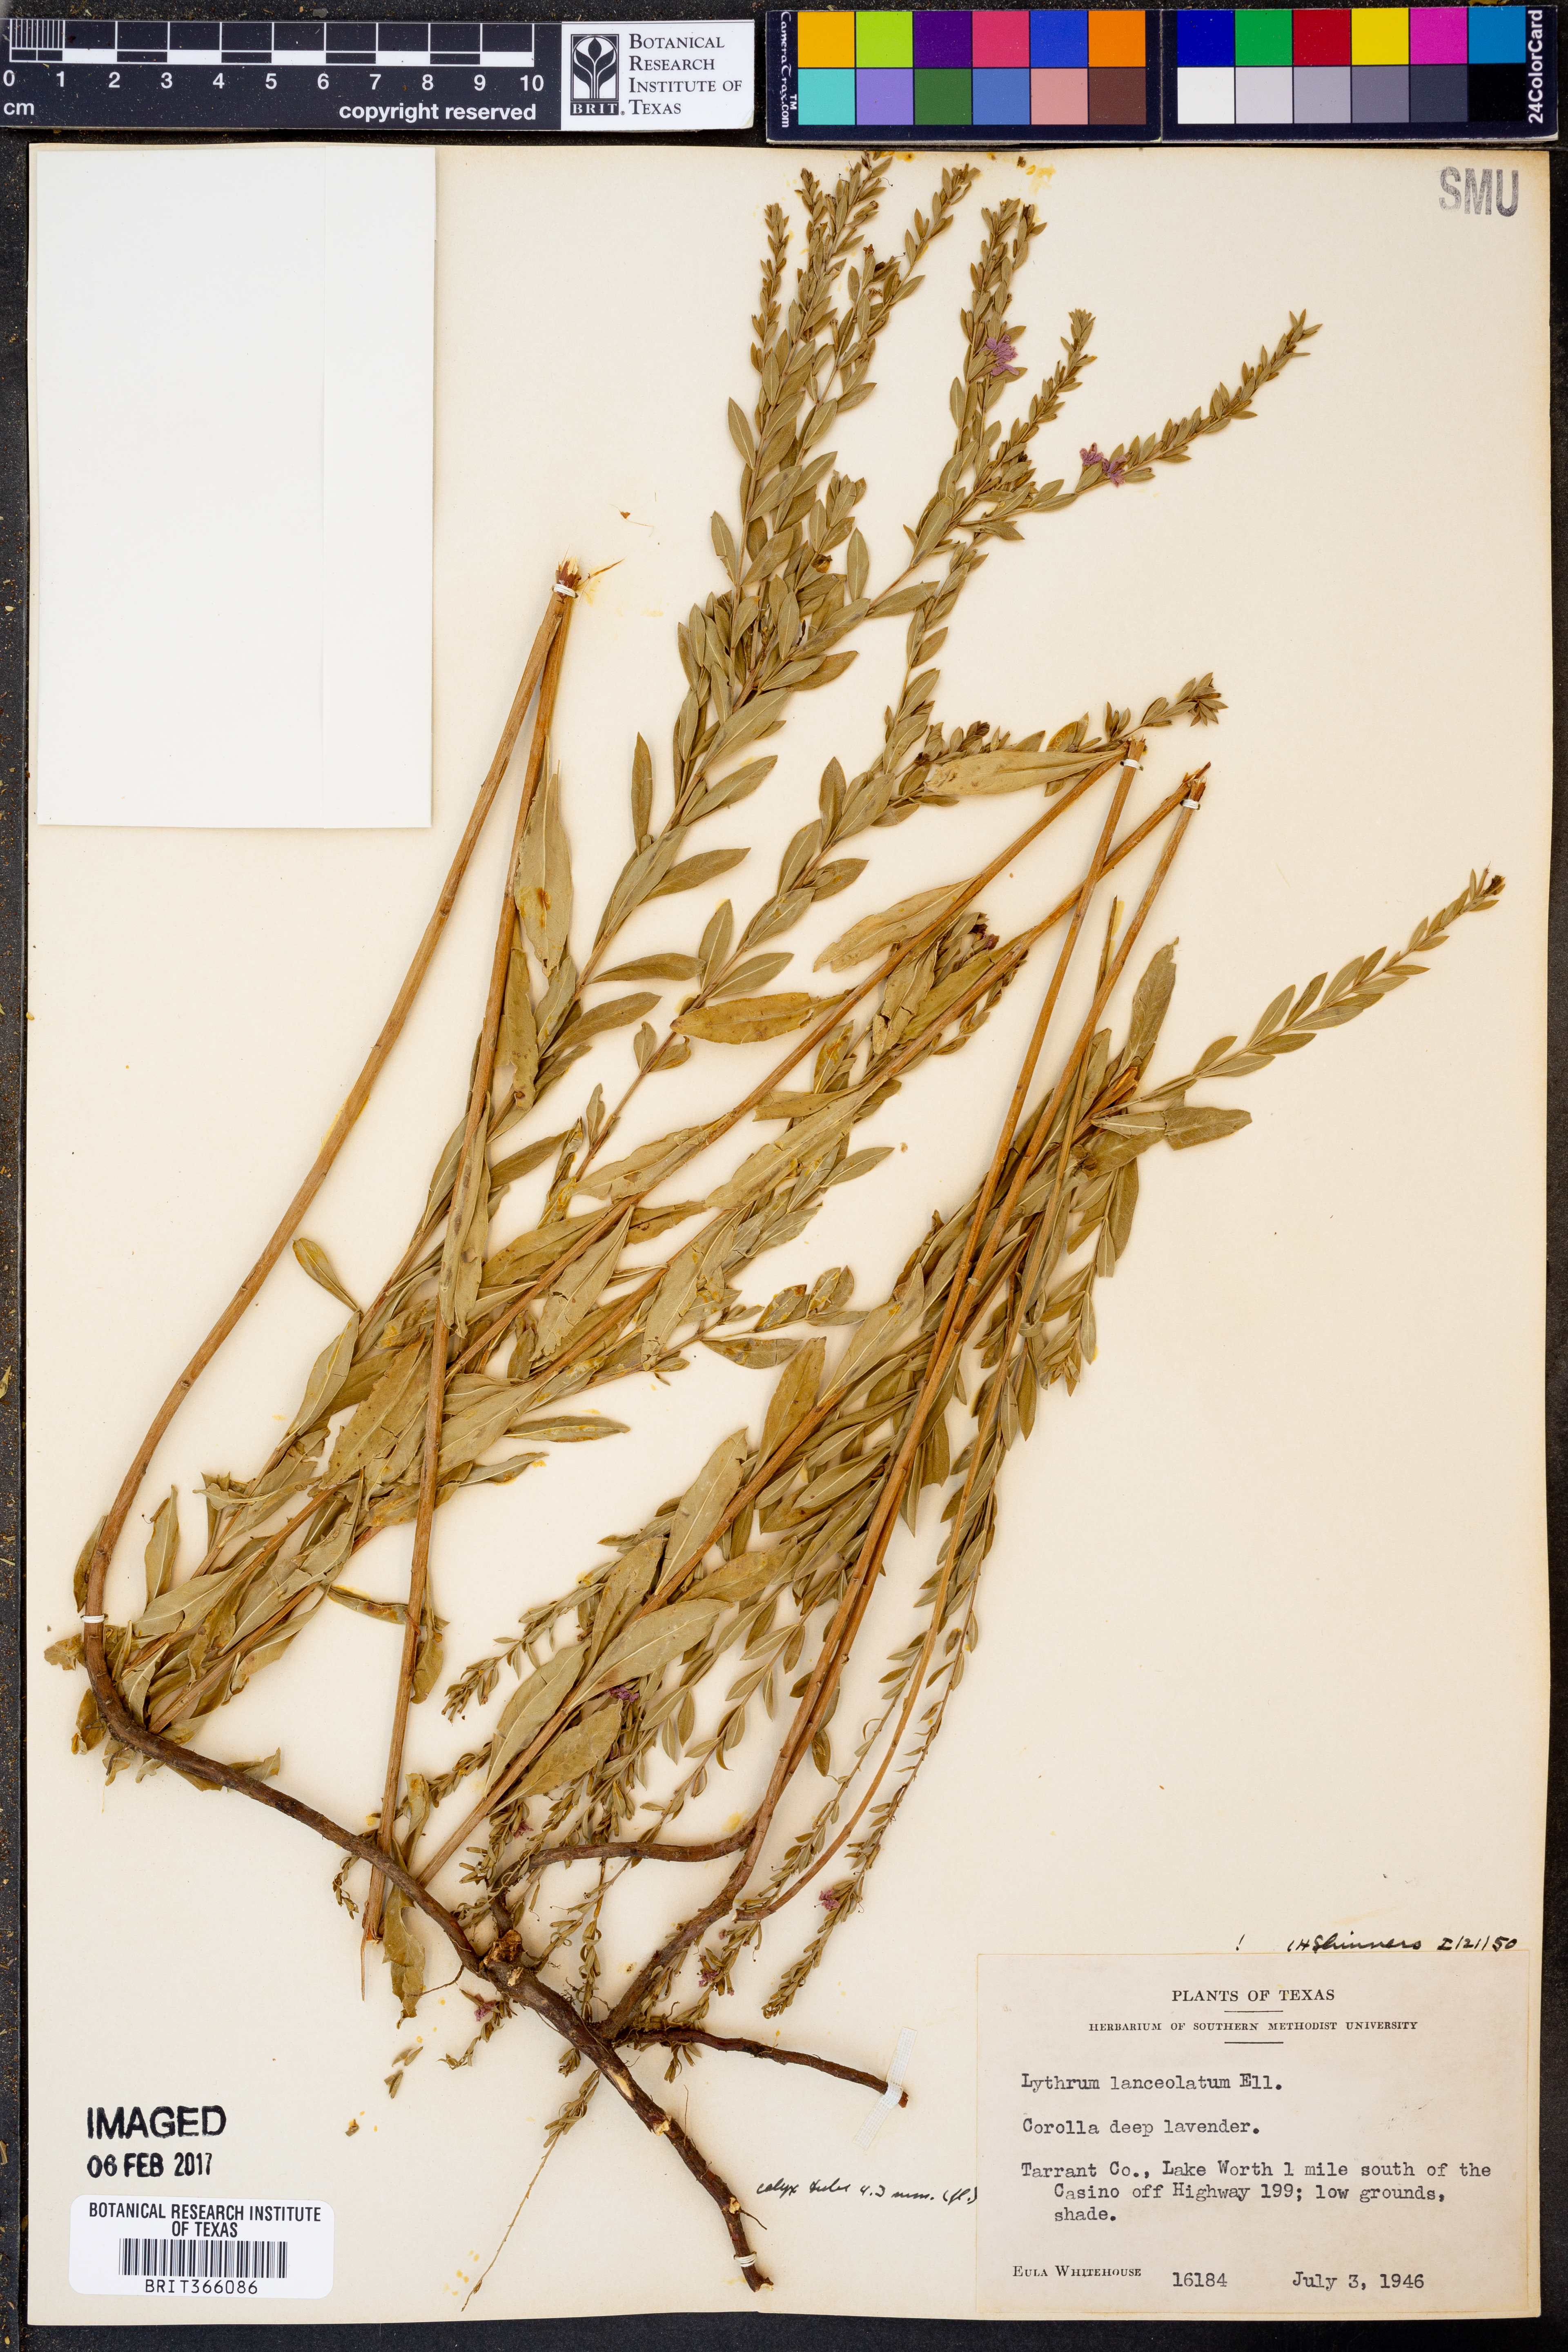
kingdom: Plantae
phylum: Tracheophyta
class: Magnoliopsida
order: Myrtales
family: Lythraceae
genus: Lythrum
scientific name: Lythrum alatum
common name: Winged loosestrife
